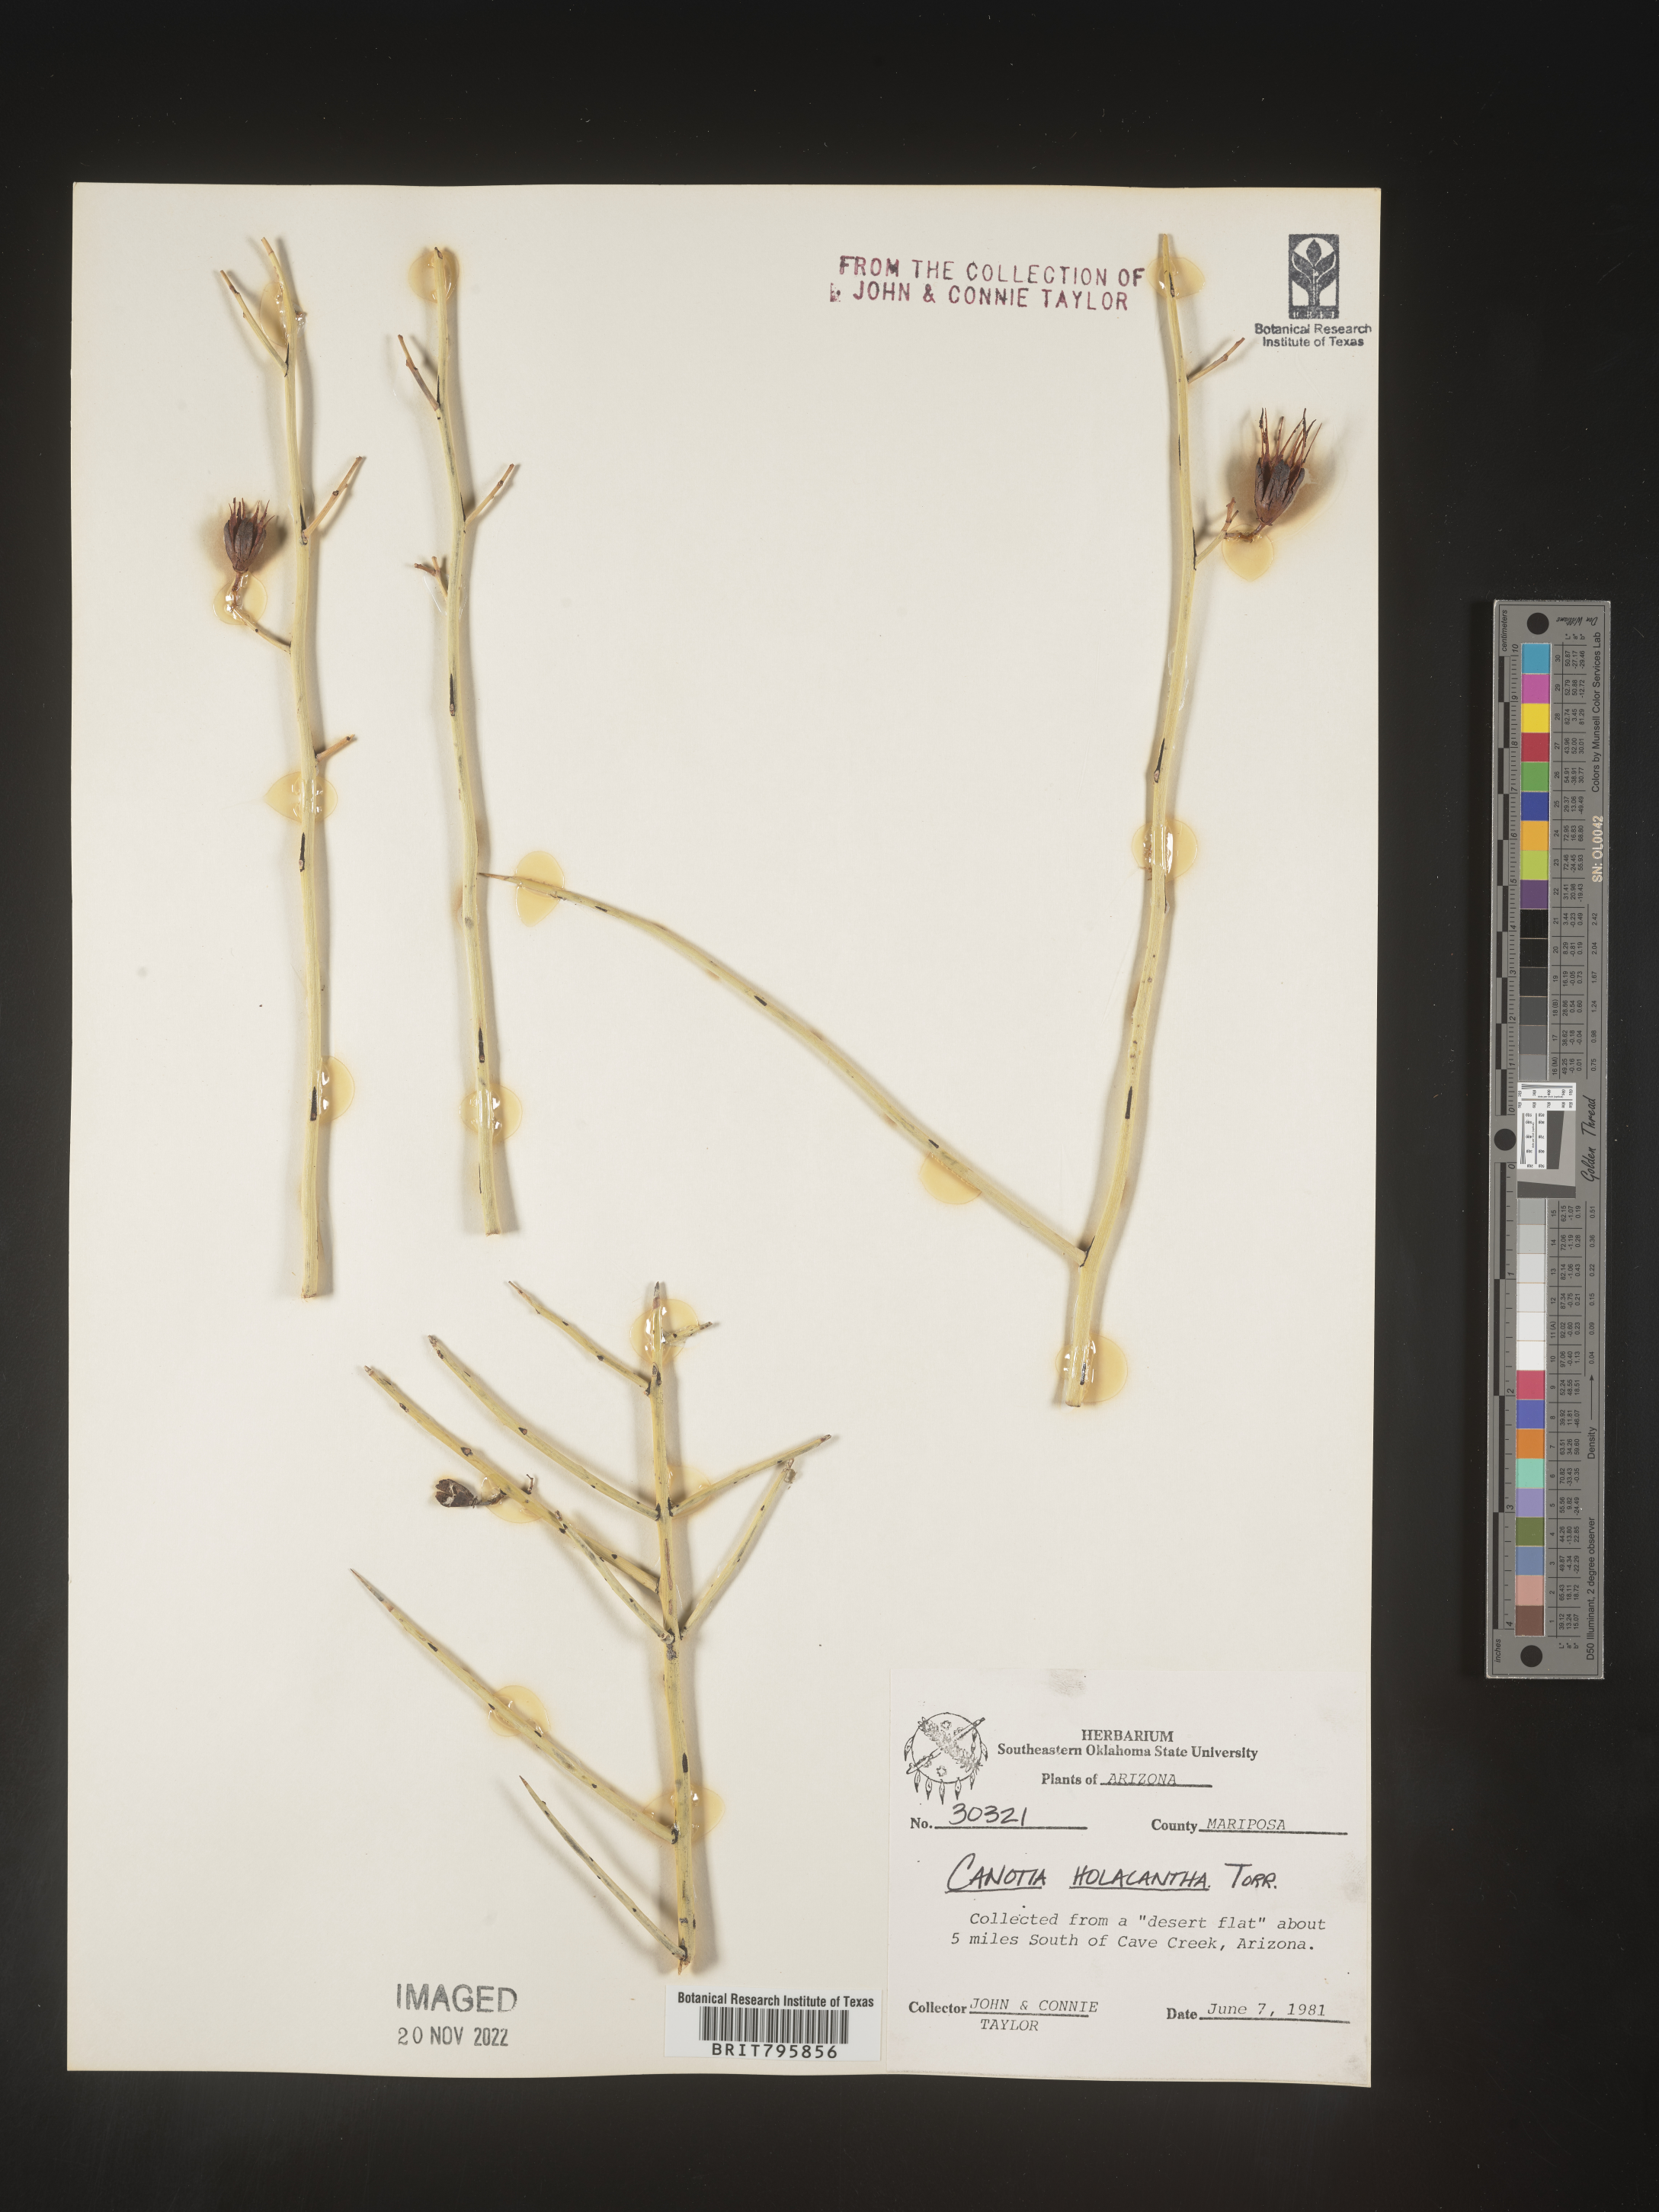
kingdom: Plantae
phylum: Tracheophyta
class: Magnoliopsida
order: Celastrales
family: Celastraceae
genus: Canotia
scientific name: Canotia
